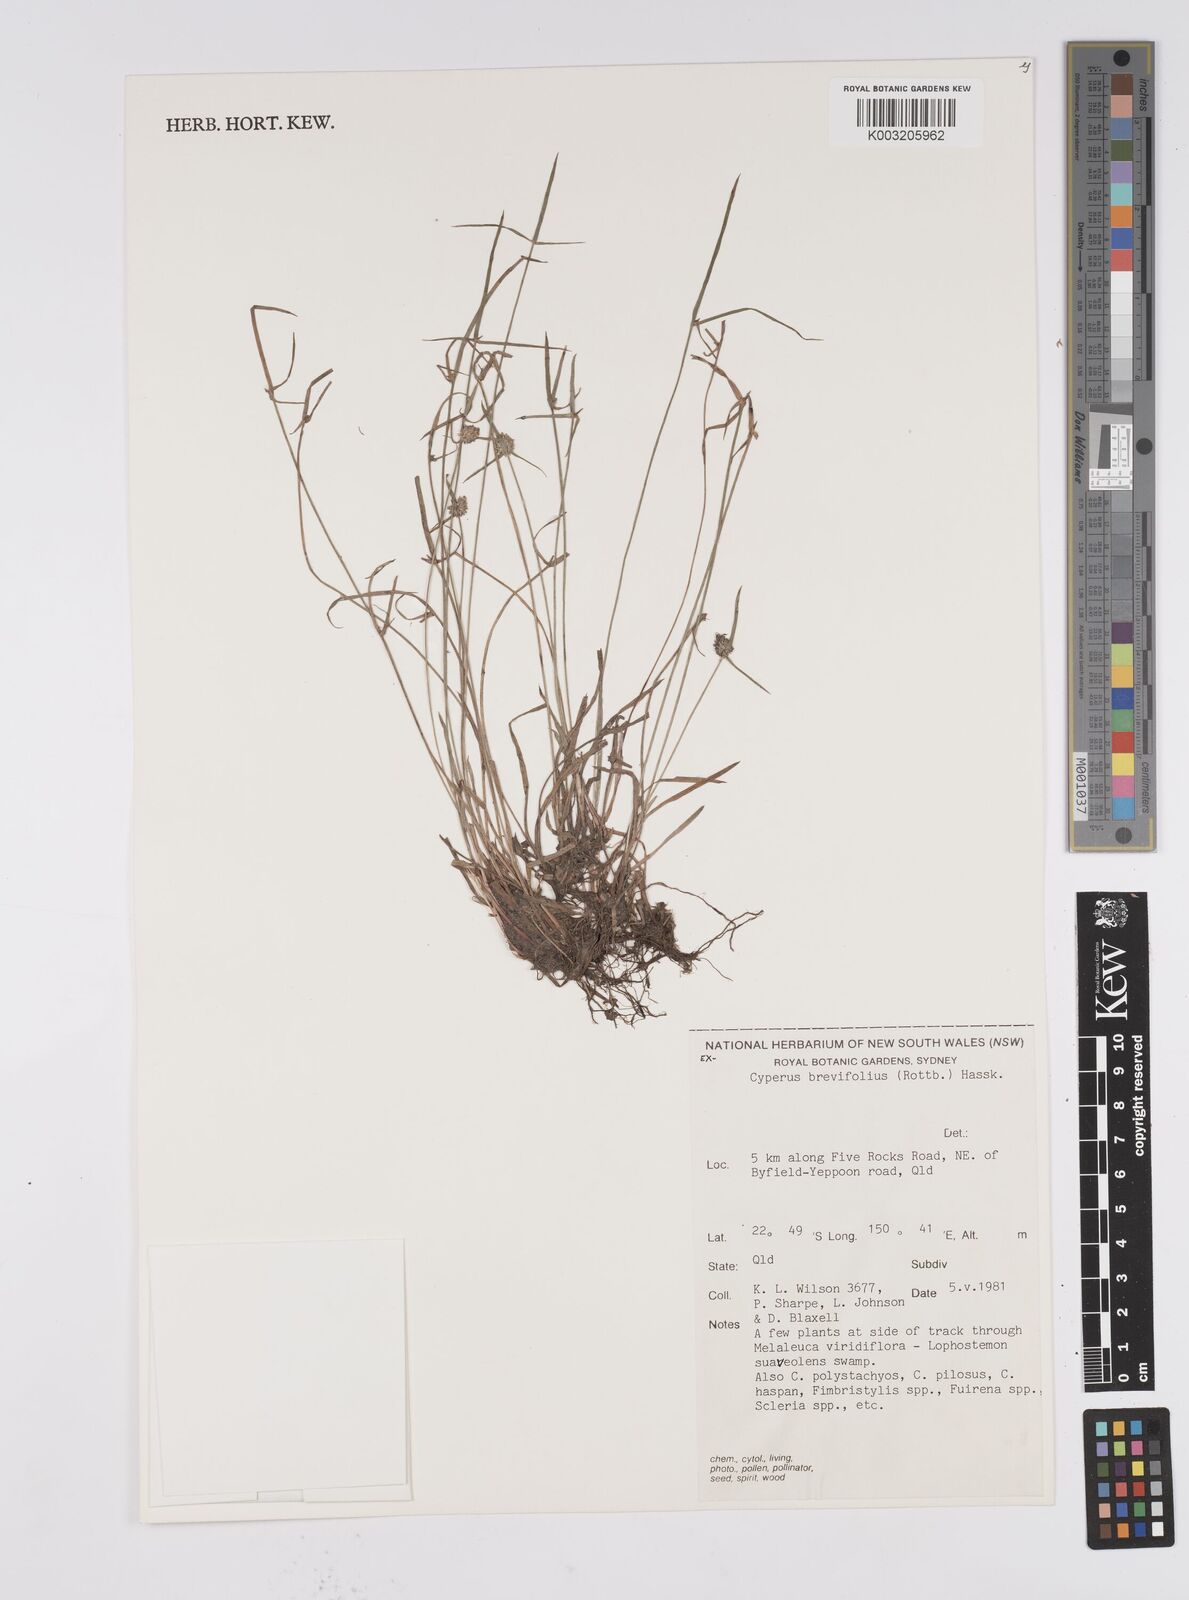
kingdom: Plantae
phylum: Tracheophyta
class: Liliopsida
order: Poales
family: Cyperaceae
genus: Cyperus
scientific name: Cyperus brevifolius
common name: Globe kyllinga
